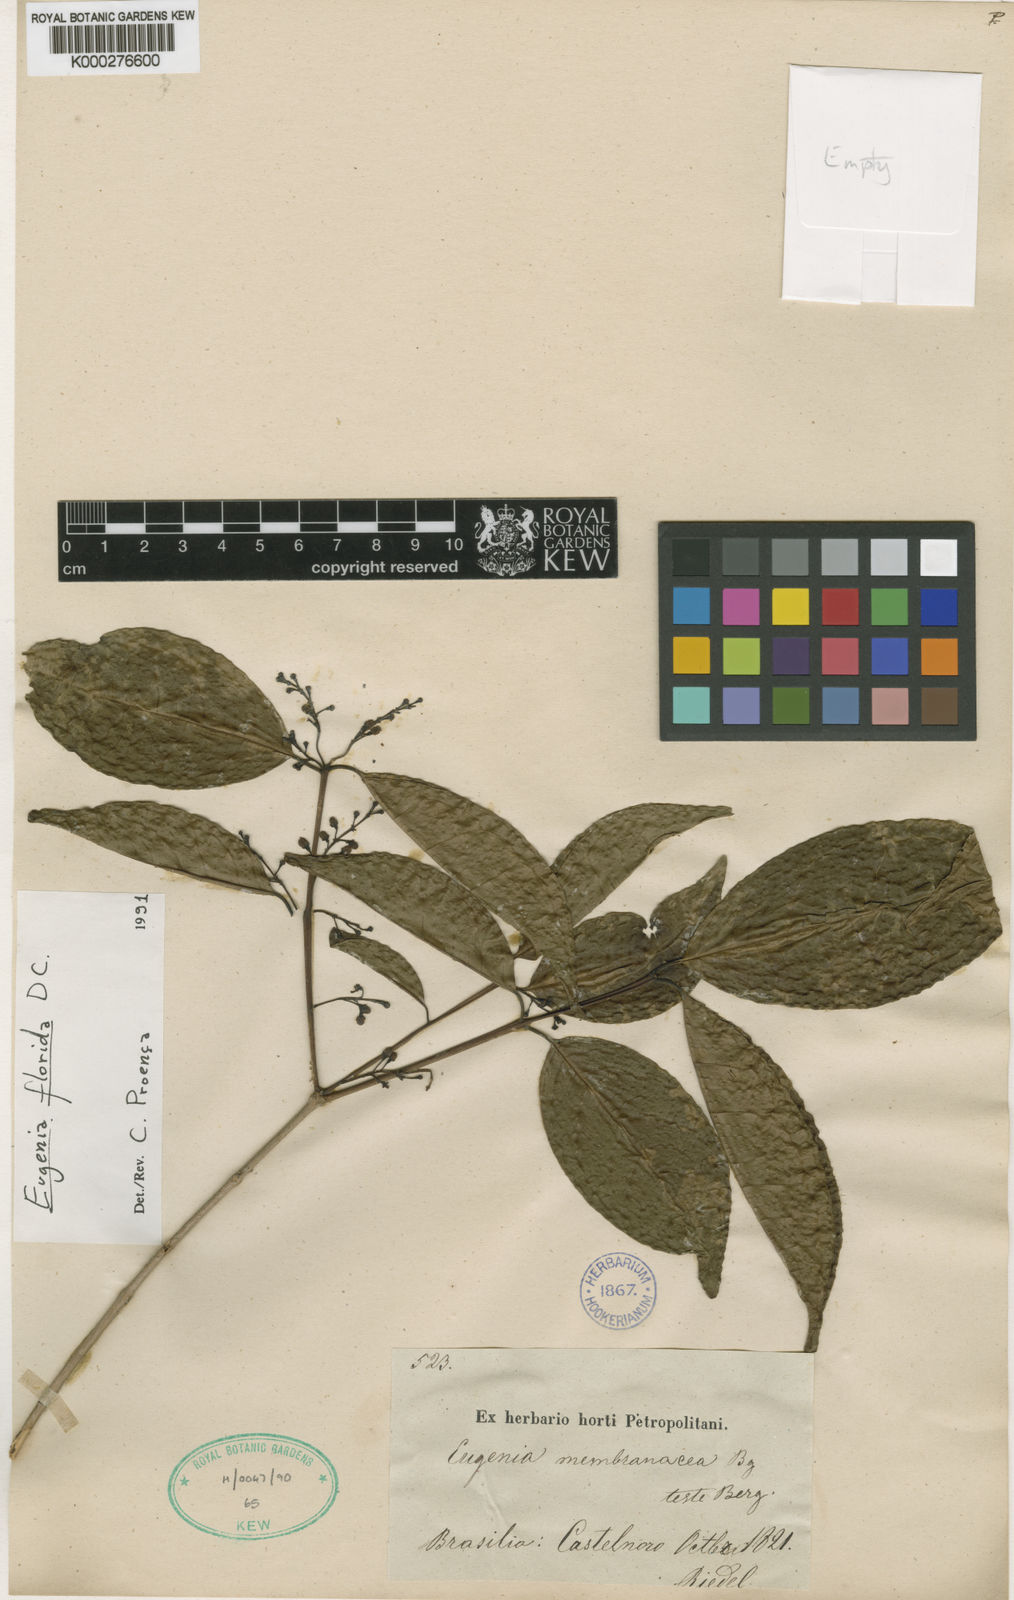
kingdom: Plantae
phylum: Tracheophyta
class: Magnoliopsida
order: Myrtales
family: Myrtaceae
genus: Eugenia
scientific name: Eugenia florida
